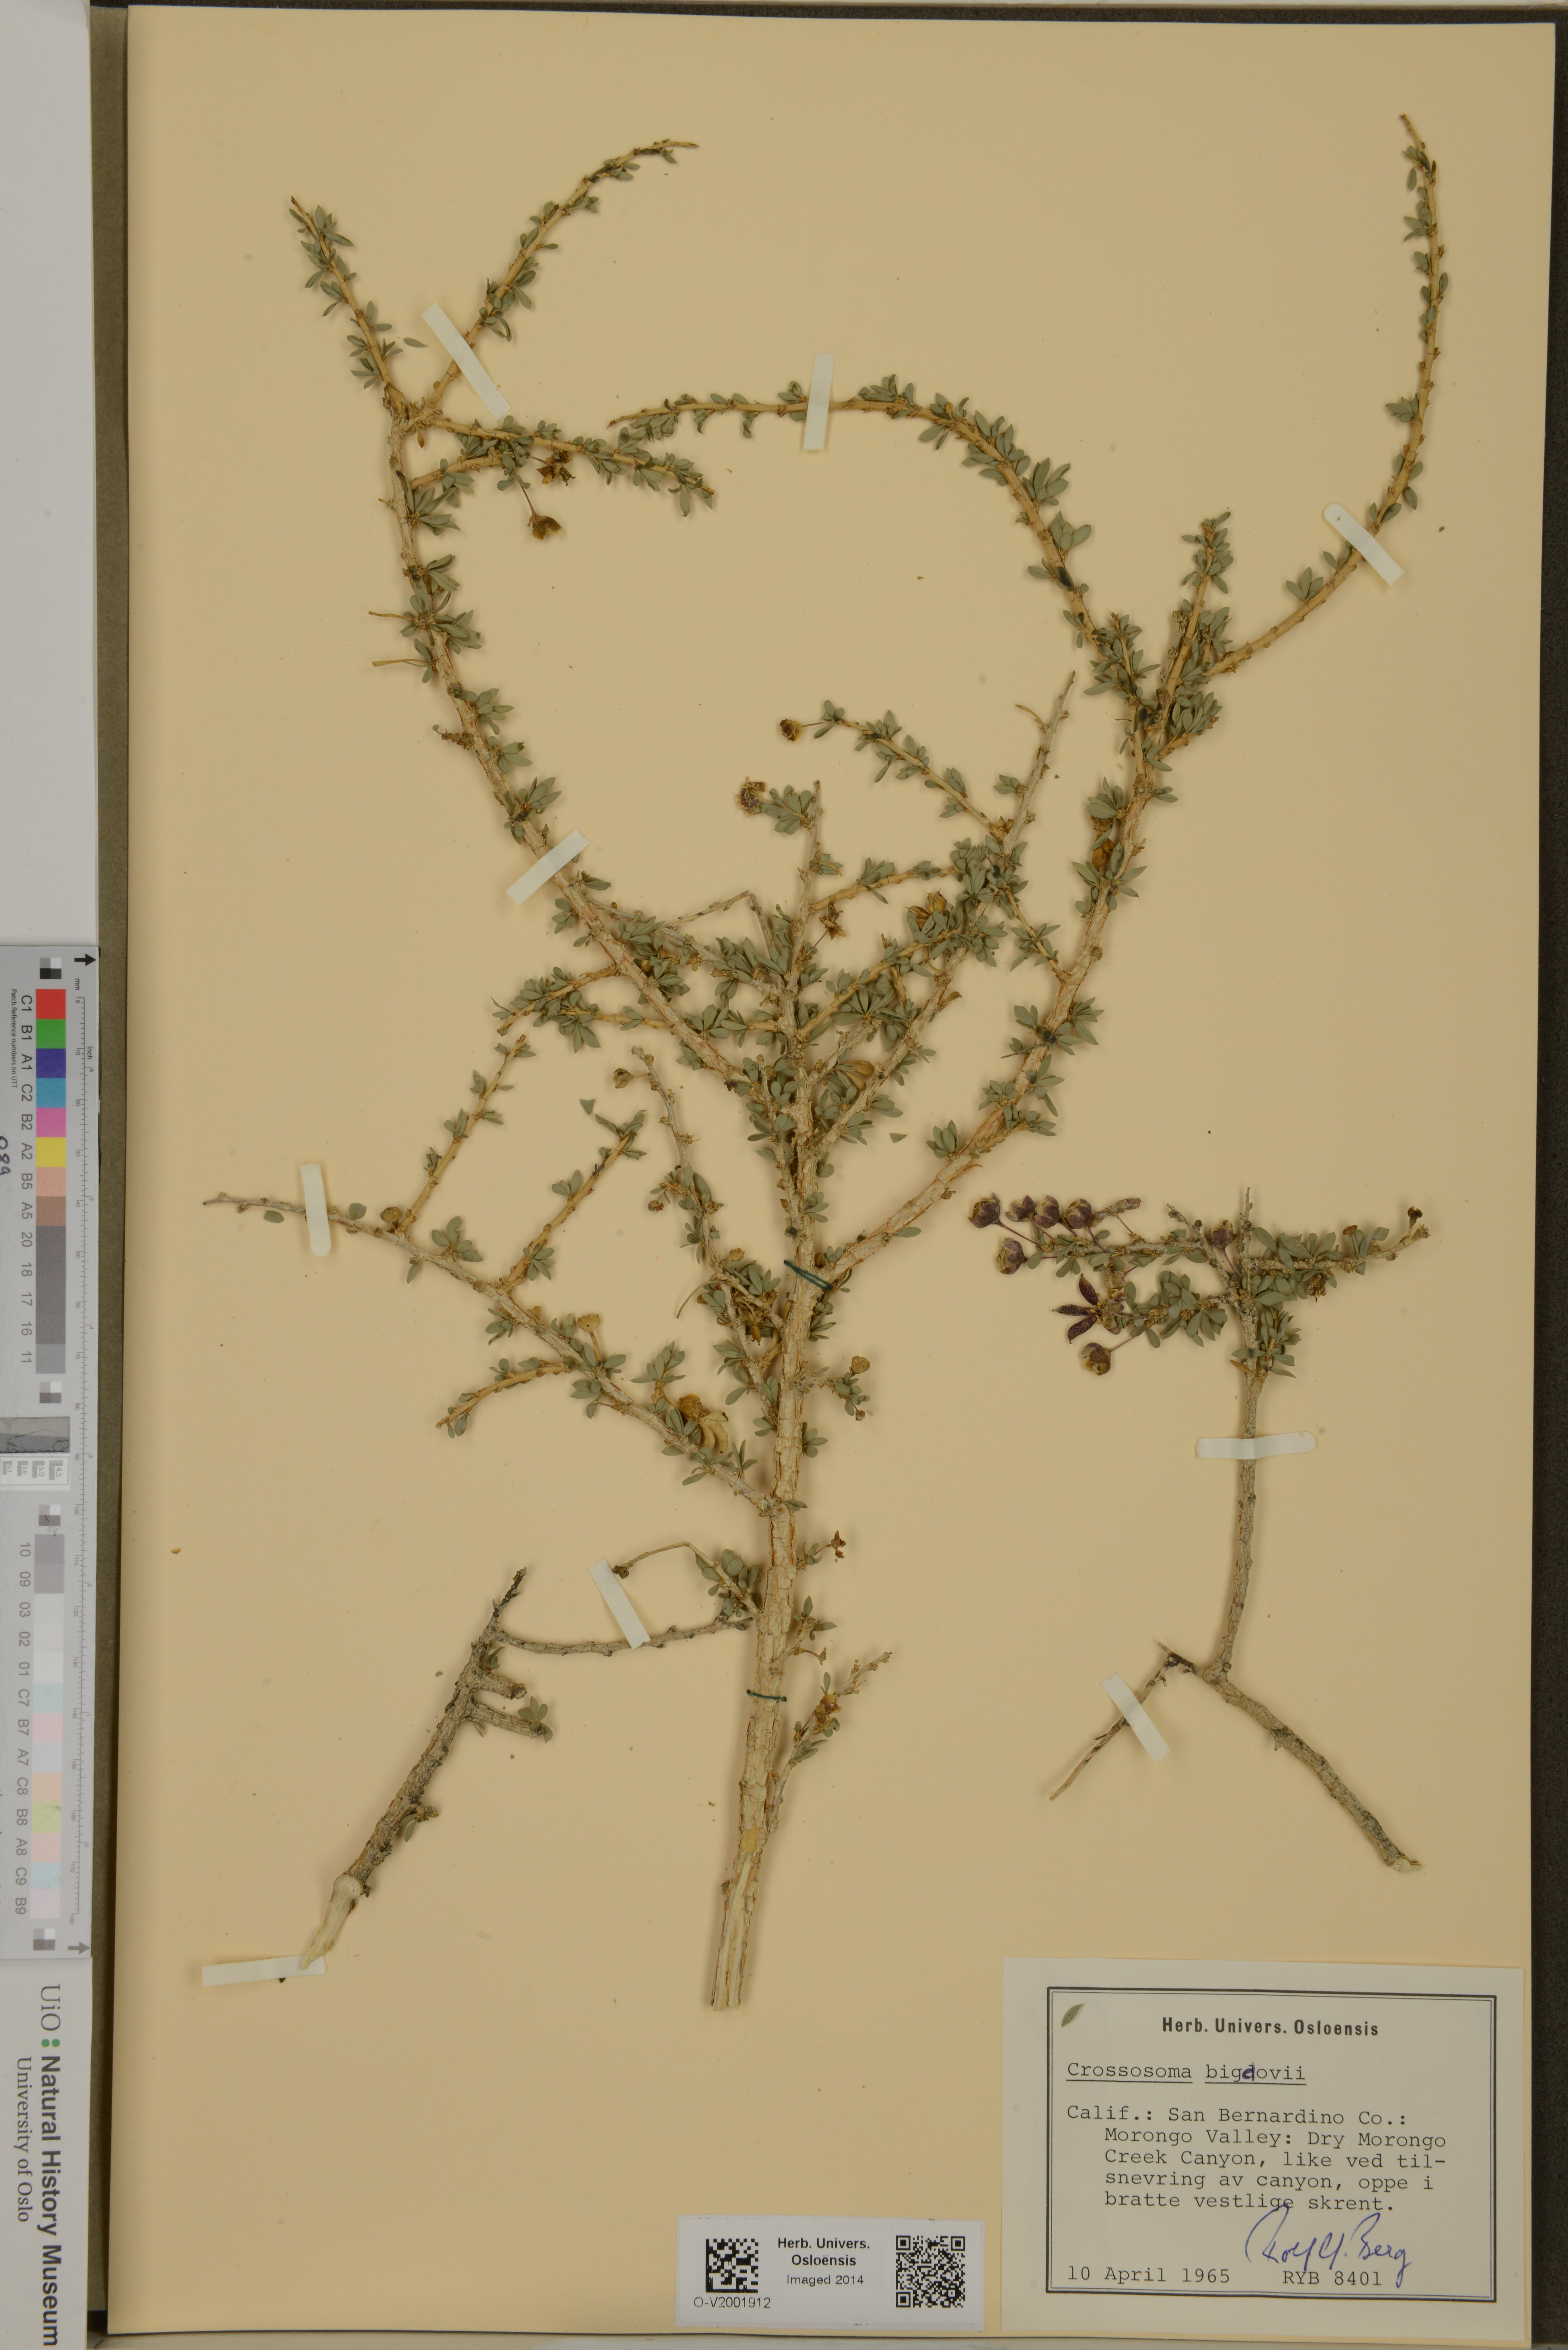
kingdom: Plantae
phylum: Tracheophyta
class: Magnoliopsida
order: Crossosomatales
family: Crossosomataceae
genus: Crossosoma
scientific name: Crossosoma bigelovii
